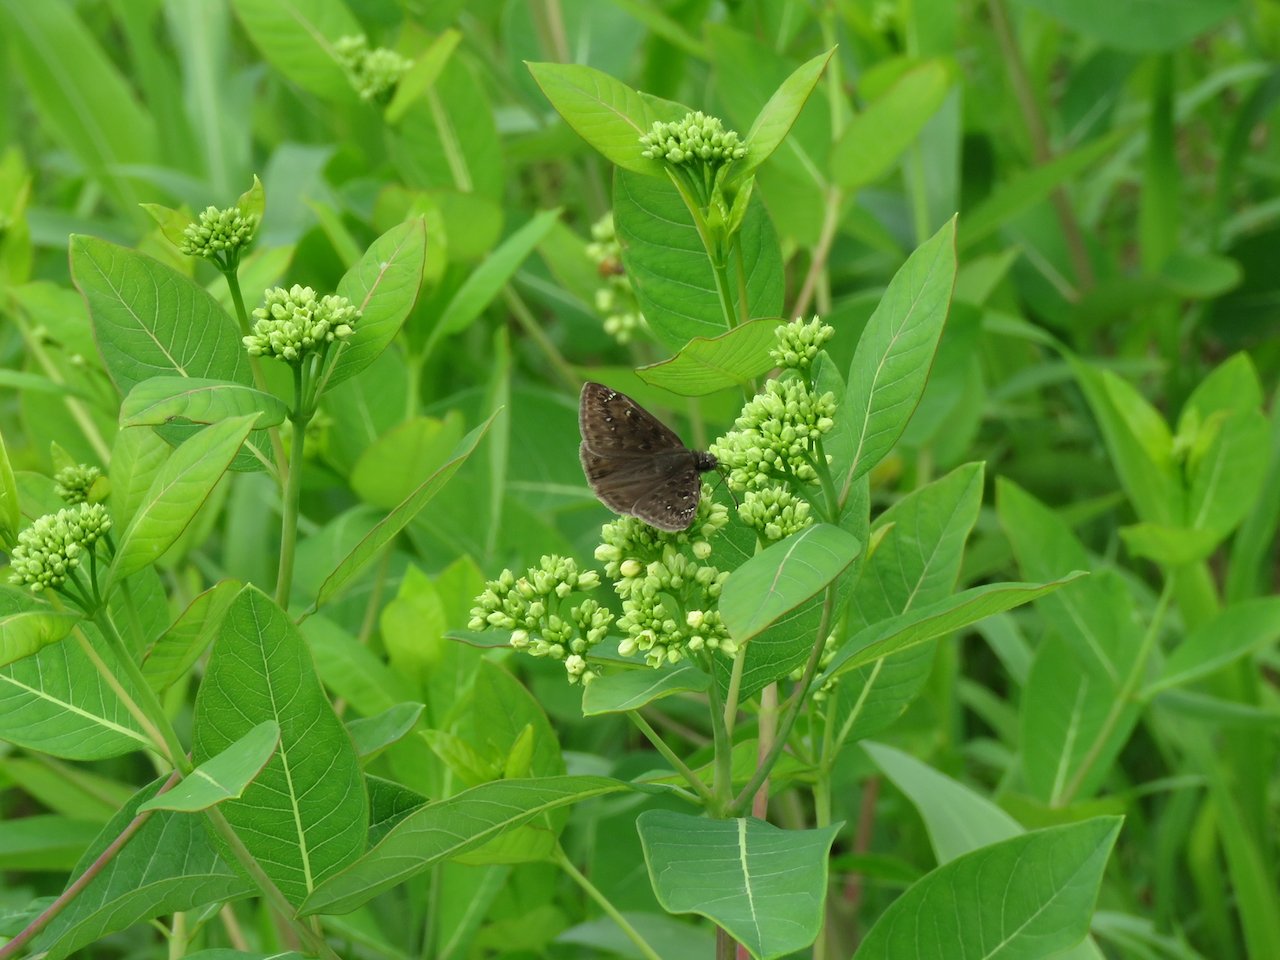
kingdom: Animalia
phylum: Arthropoda
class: Insecta
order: Lepidoptera
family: Hesperiidae
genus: Gesta
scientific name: Gesta
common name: Horace's Duskywing
